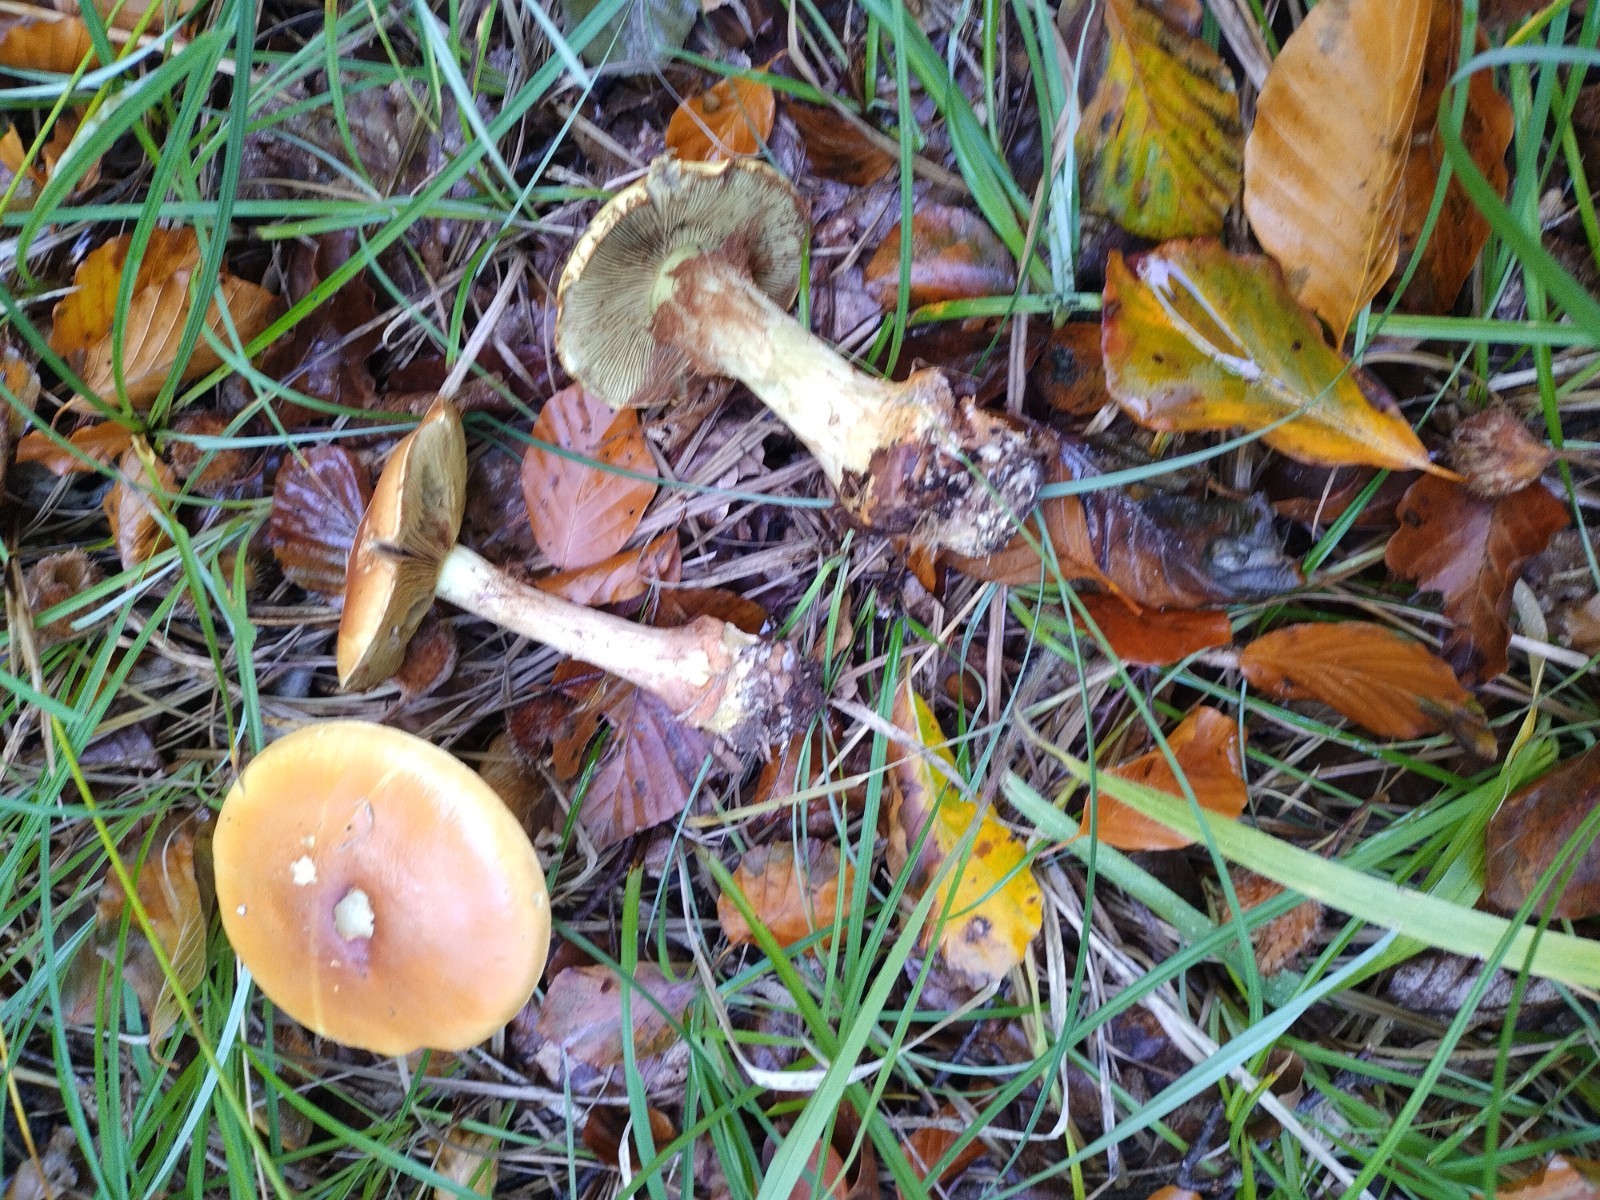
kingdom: Fungi
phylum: Basidiomycota
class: Agaricomycetes
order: Agaricales
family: Cortinariaceae
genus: Calonarius
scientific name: Calonarius elegantissimus
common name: orangegylden slørhat
